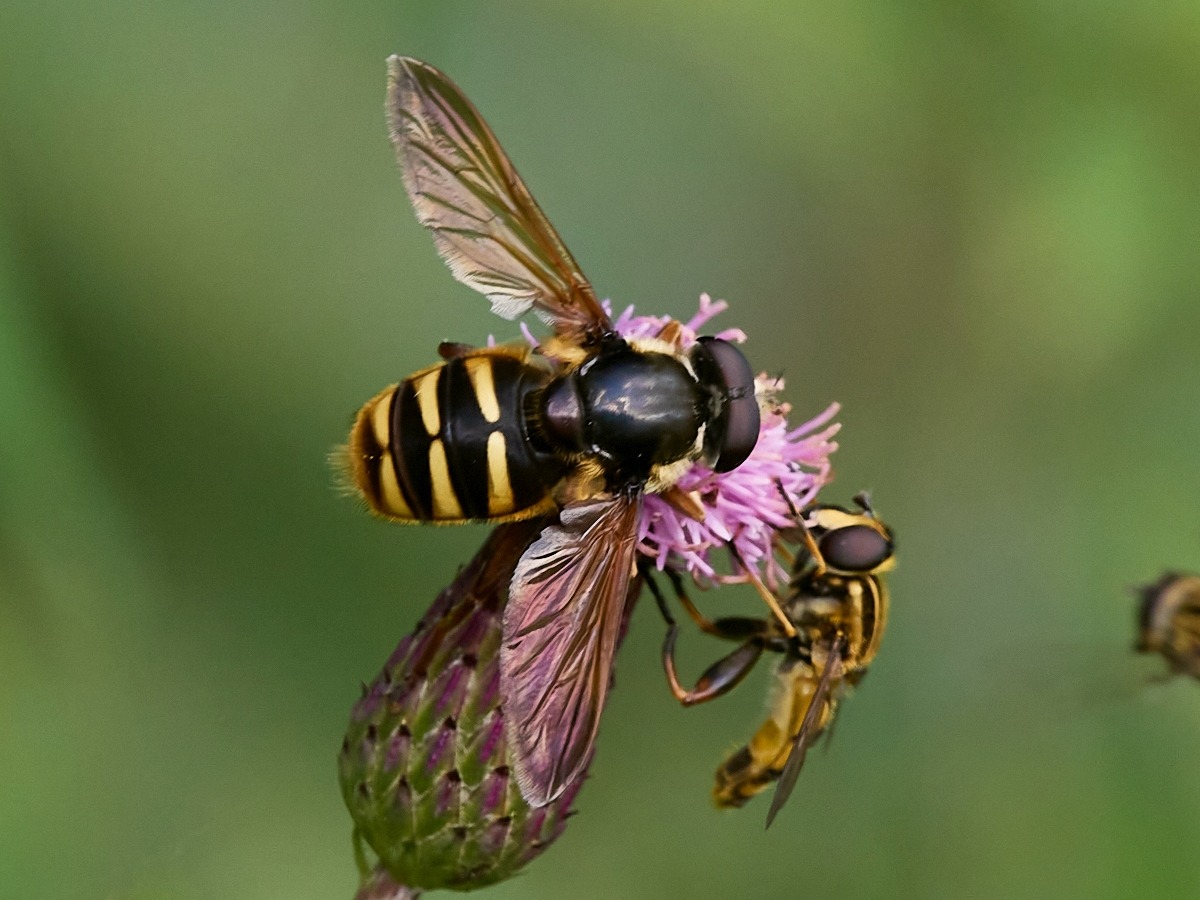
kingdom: Animalia
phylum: Arthropoda
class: Insecta
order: Diptera
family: Syrphidae
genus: Sericomyia
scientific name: Sericomyia silentis
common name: Tørve-silkesvirreflue
